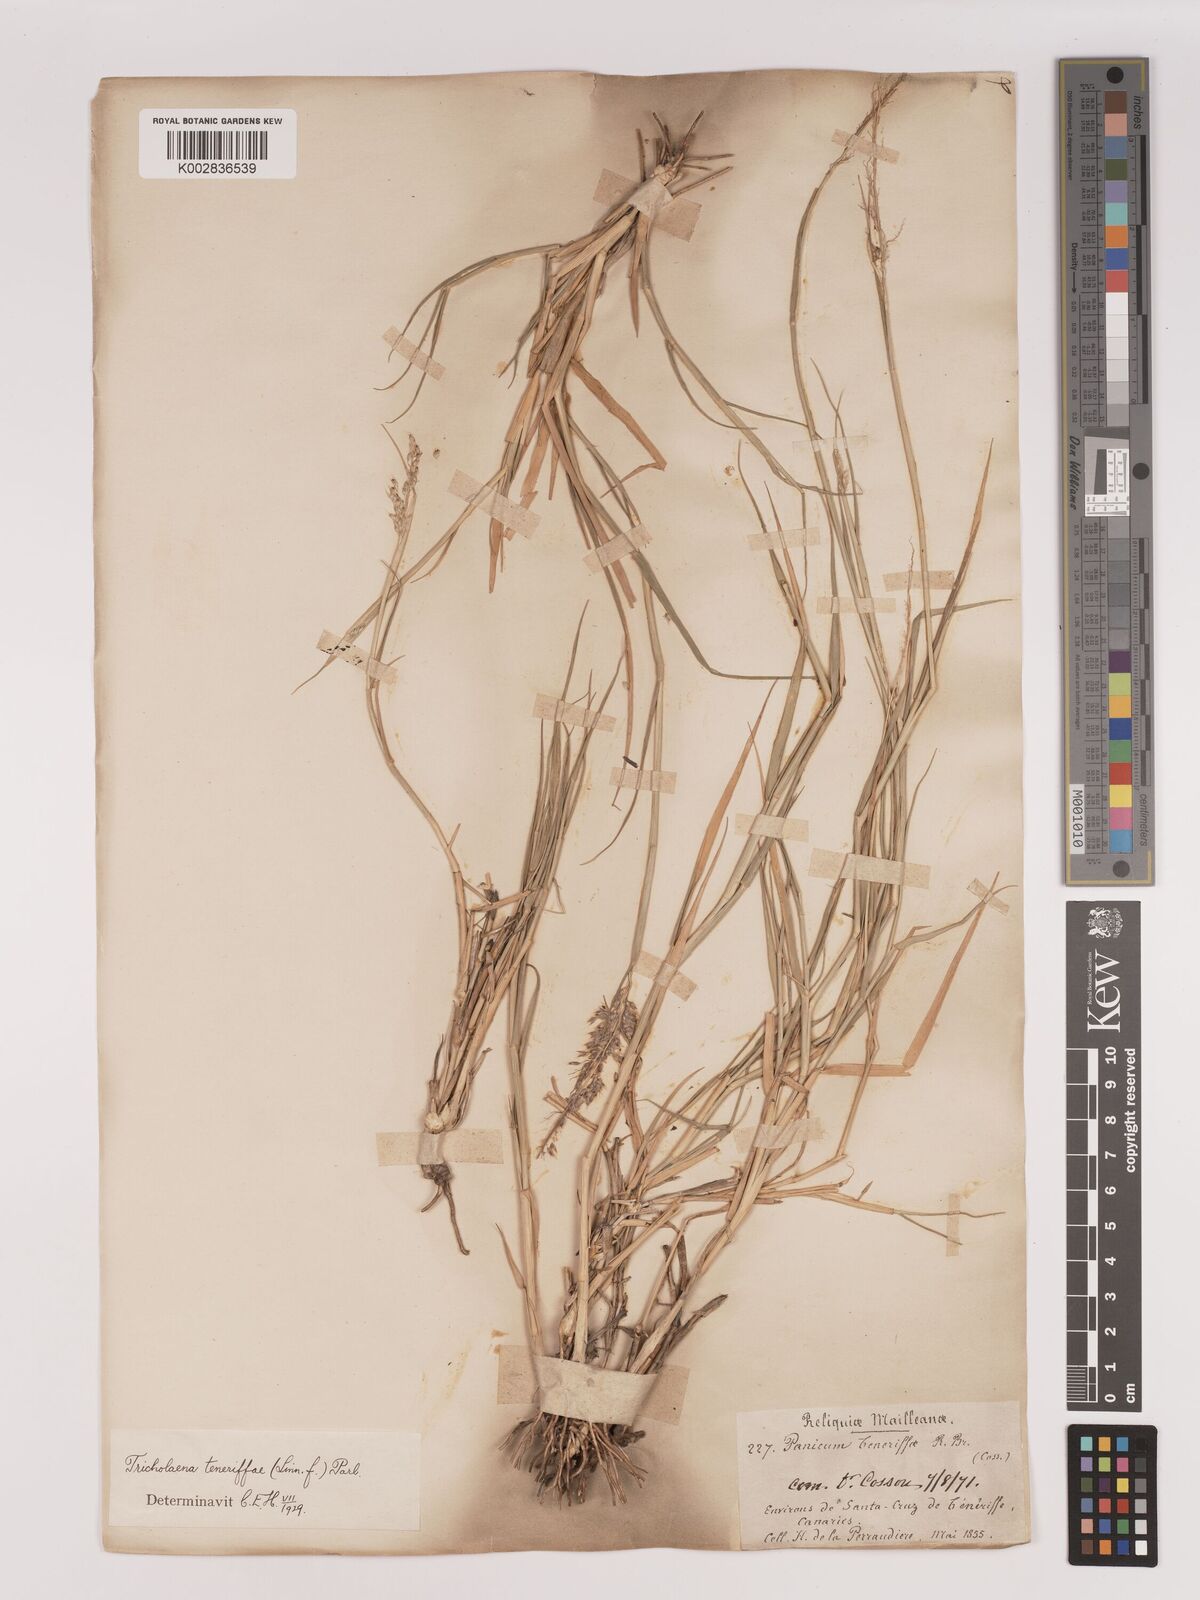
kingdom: Plantae
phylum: Tracheophyta
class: Liliopsida
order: Poales
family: Poaceae
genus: Tricholaena
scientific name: Tricholaena teneriffae
